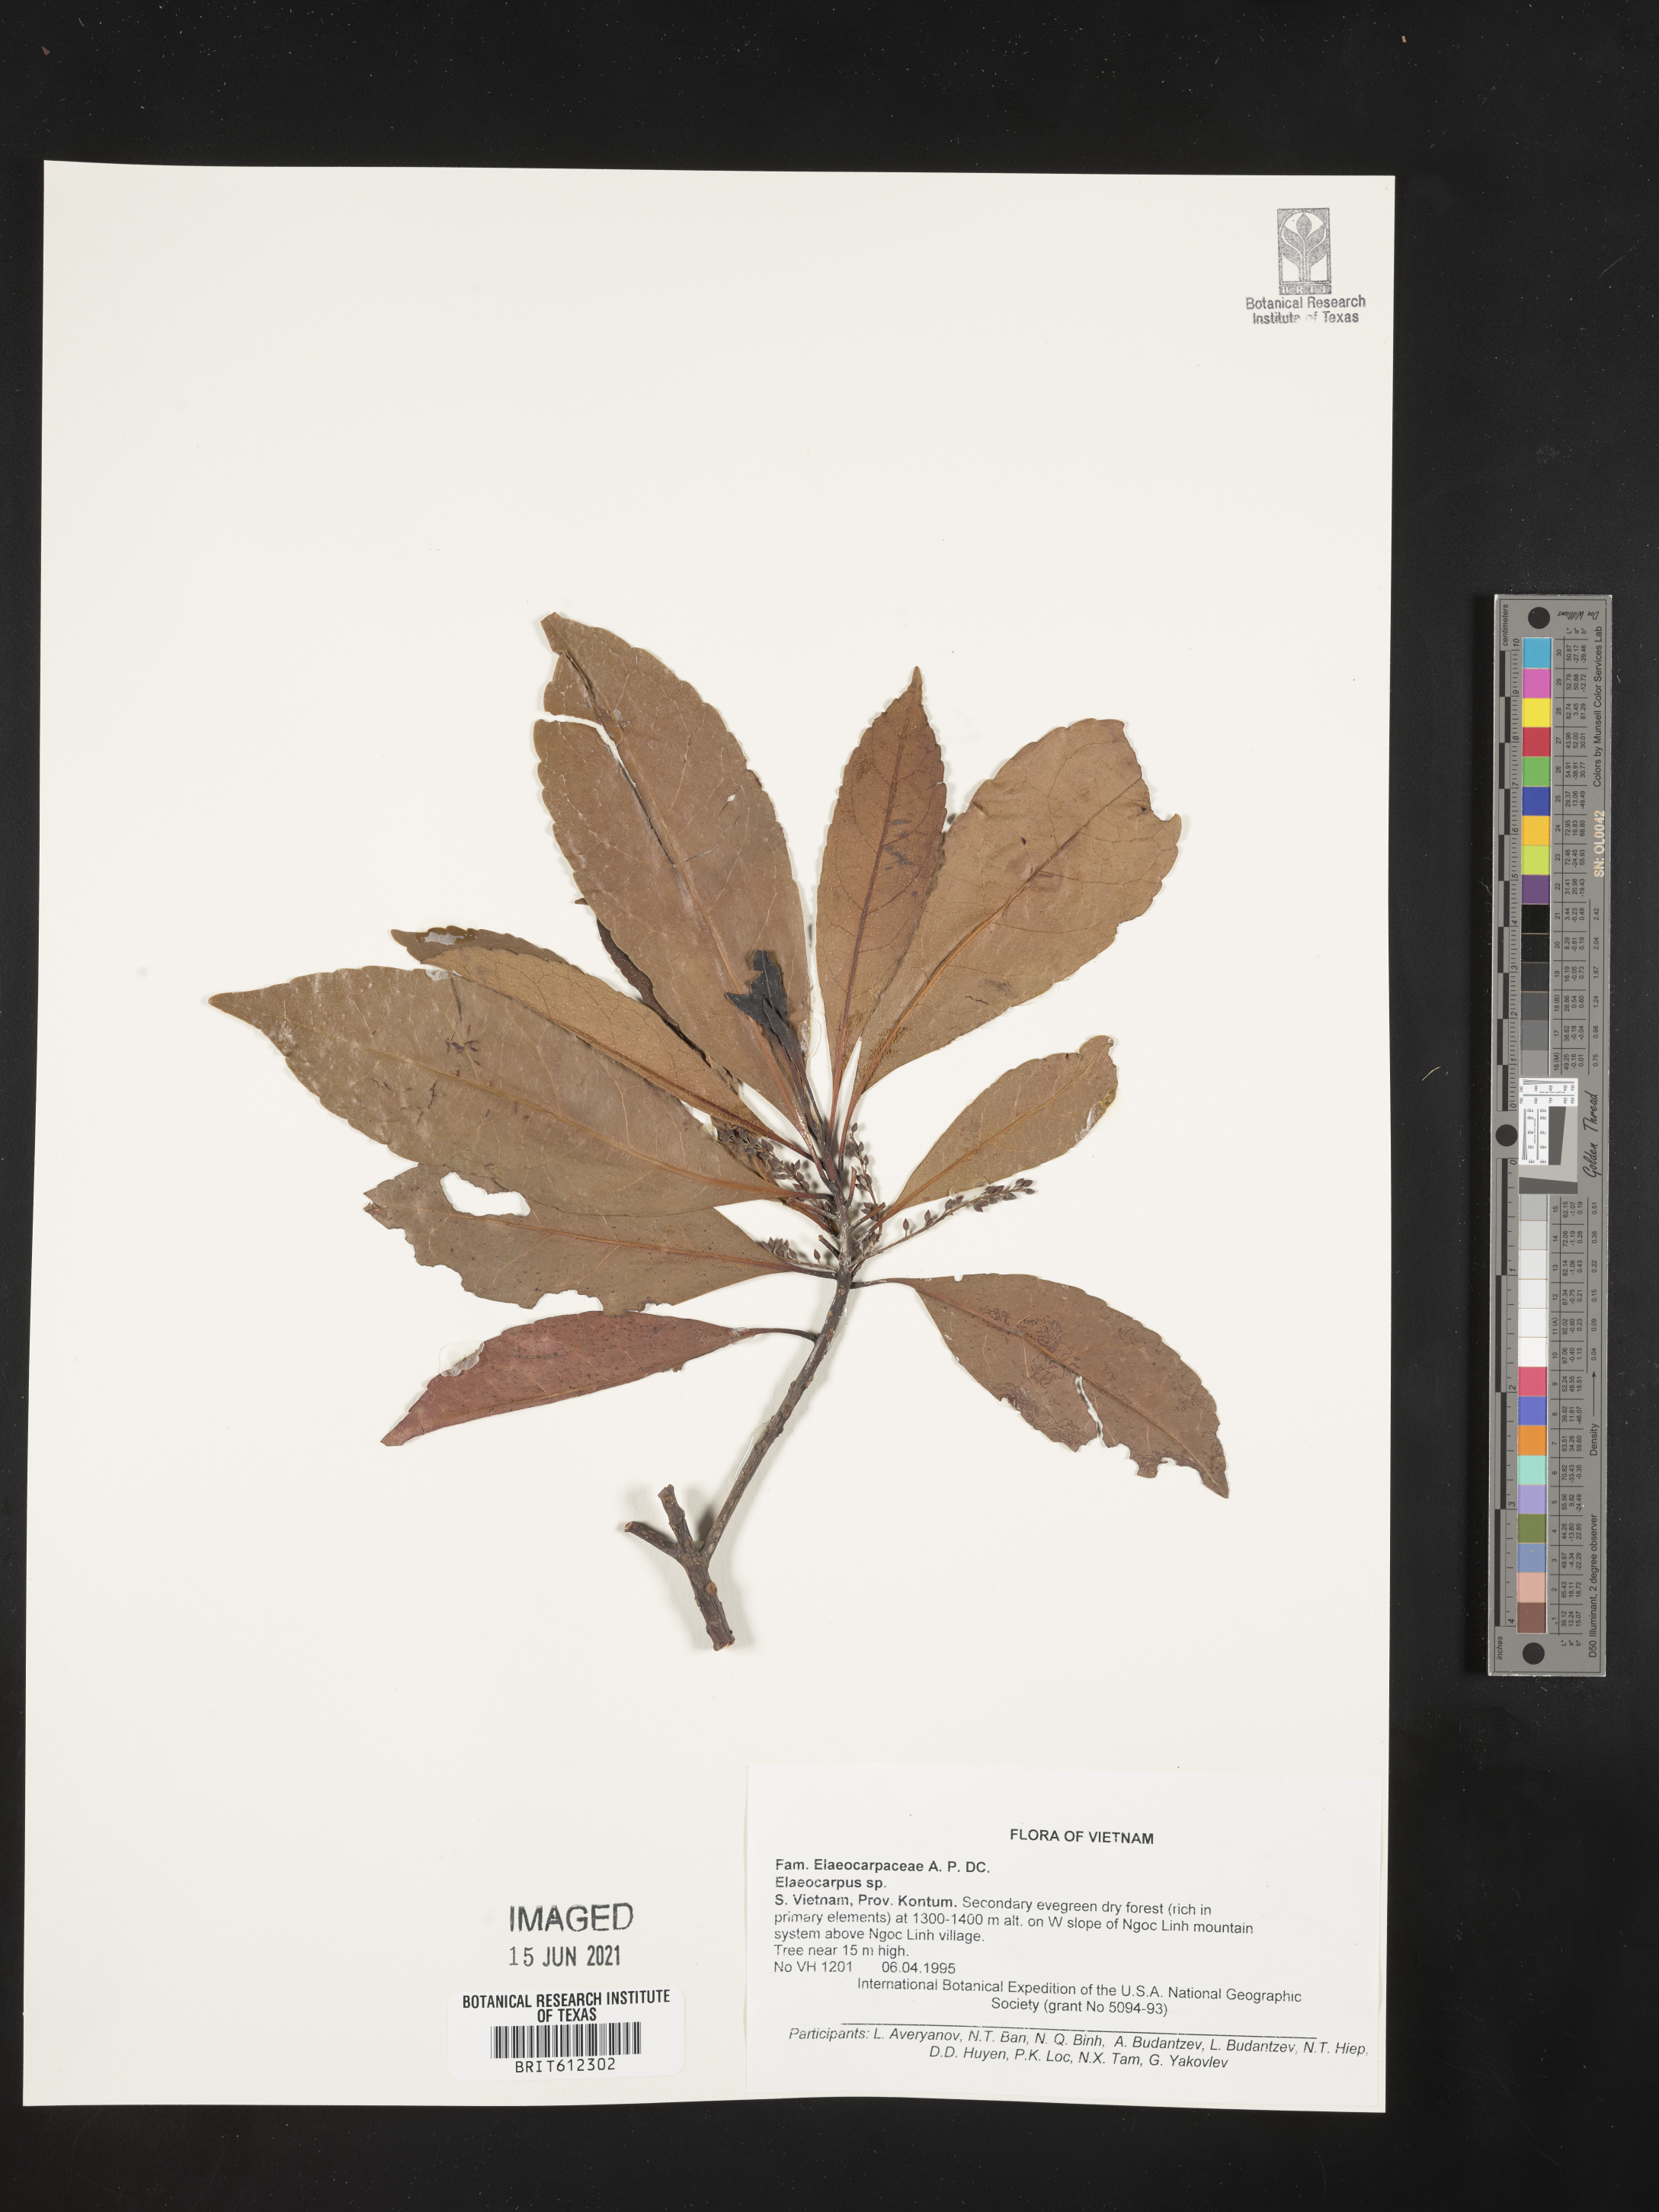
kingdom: Plantae
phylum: Tracheophyta
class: Magnoliopsida
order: Oxalidales
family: Elaeocarpaceae
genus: Elaeocarpus
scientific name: Elaeocarpus
